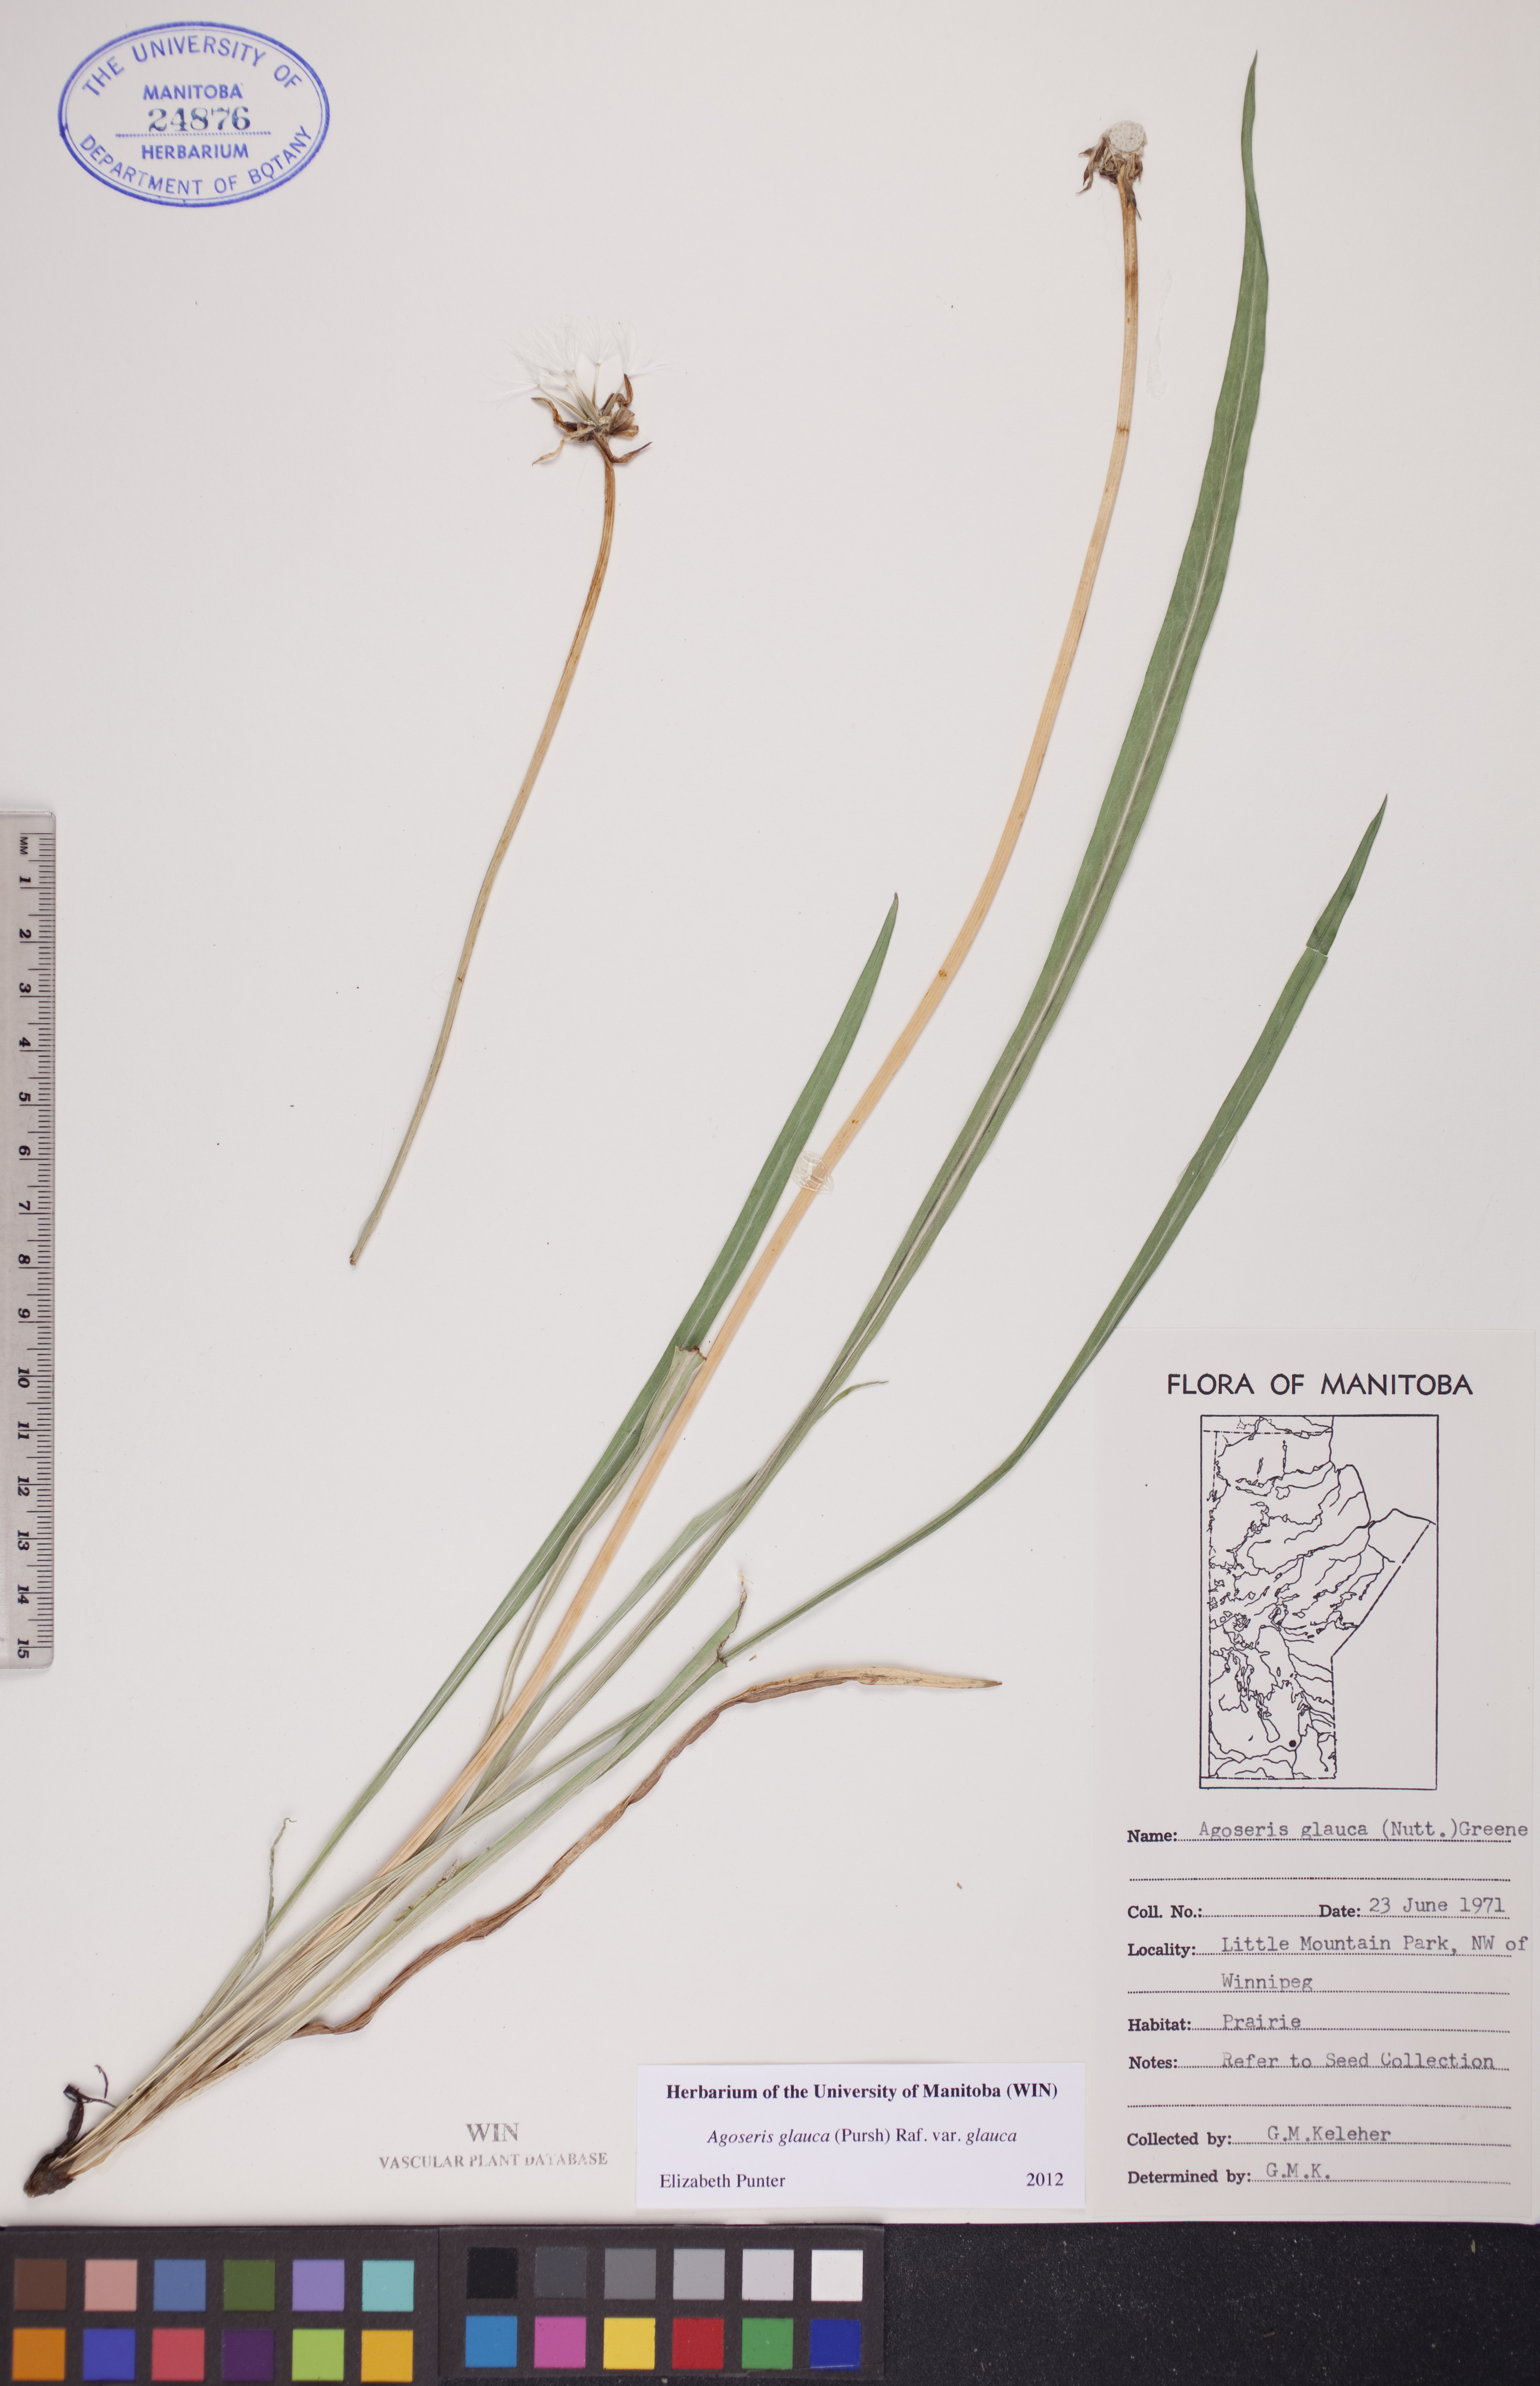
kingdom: Plantae
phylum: Tracheophyta
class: Magnoliopsida
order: Asterales
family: Asteraceae
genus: Agoseris
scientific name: Agoseris glauca
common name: Prairie agoseris
